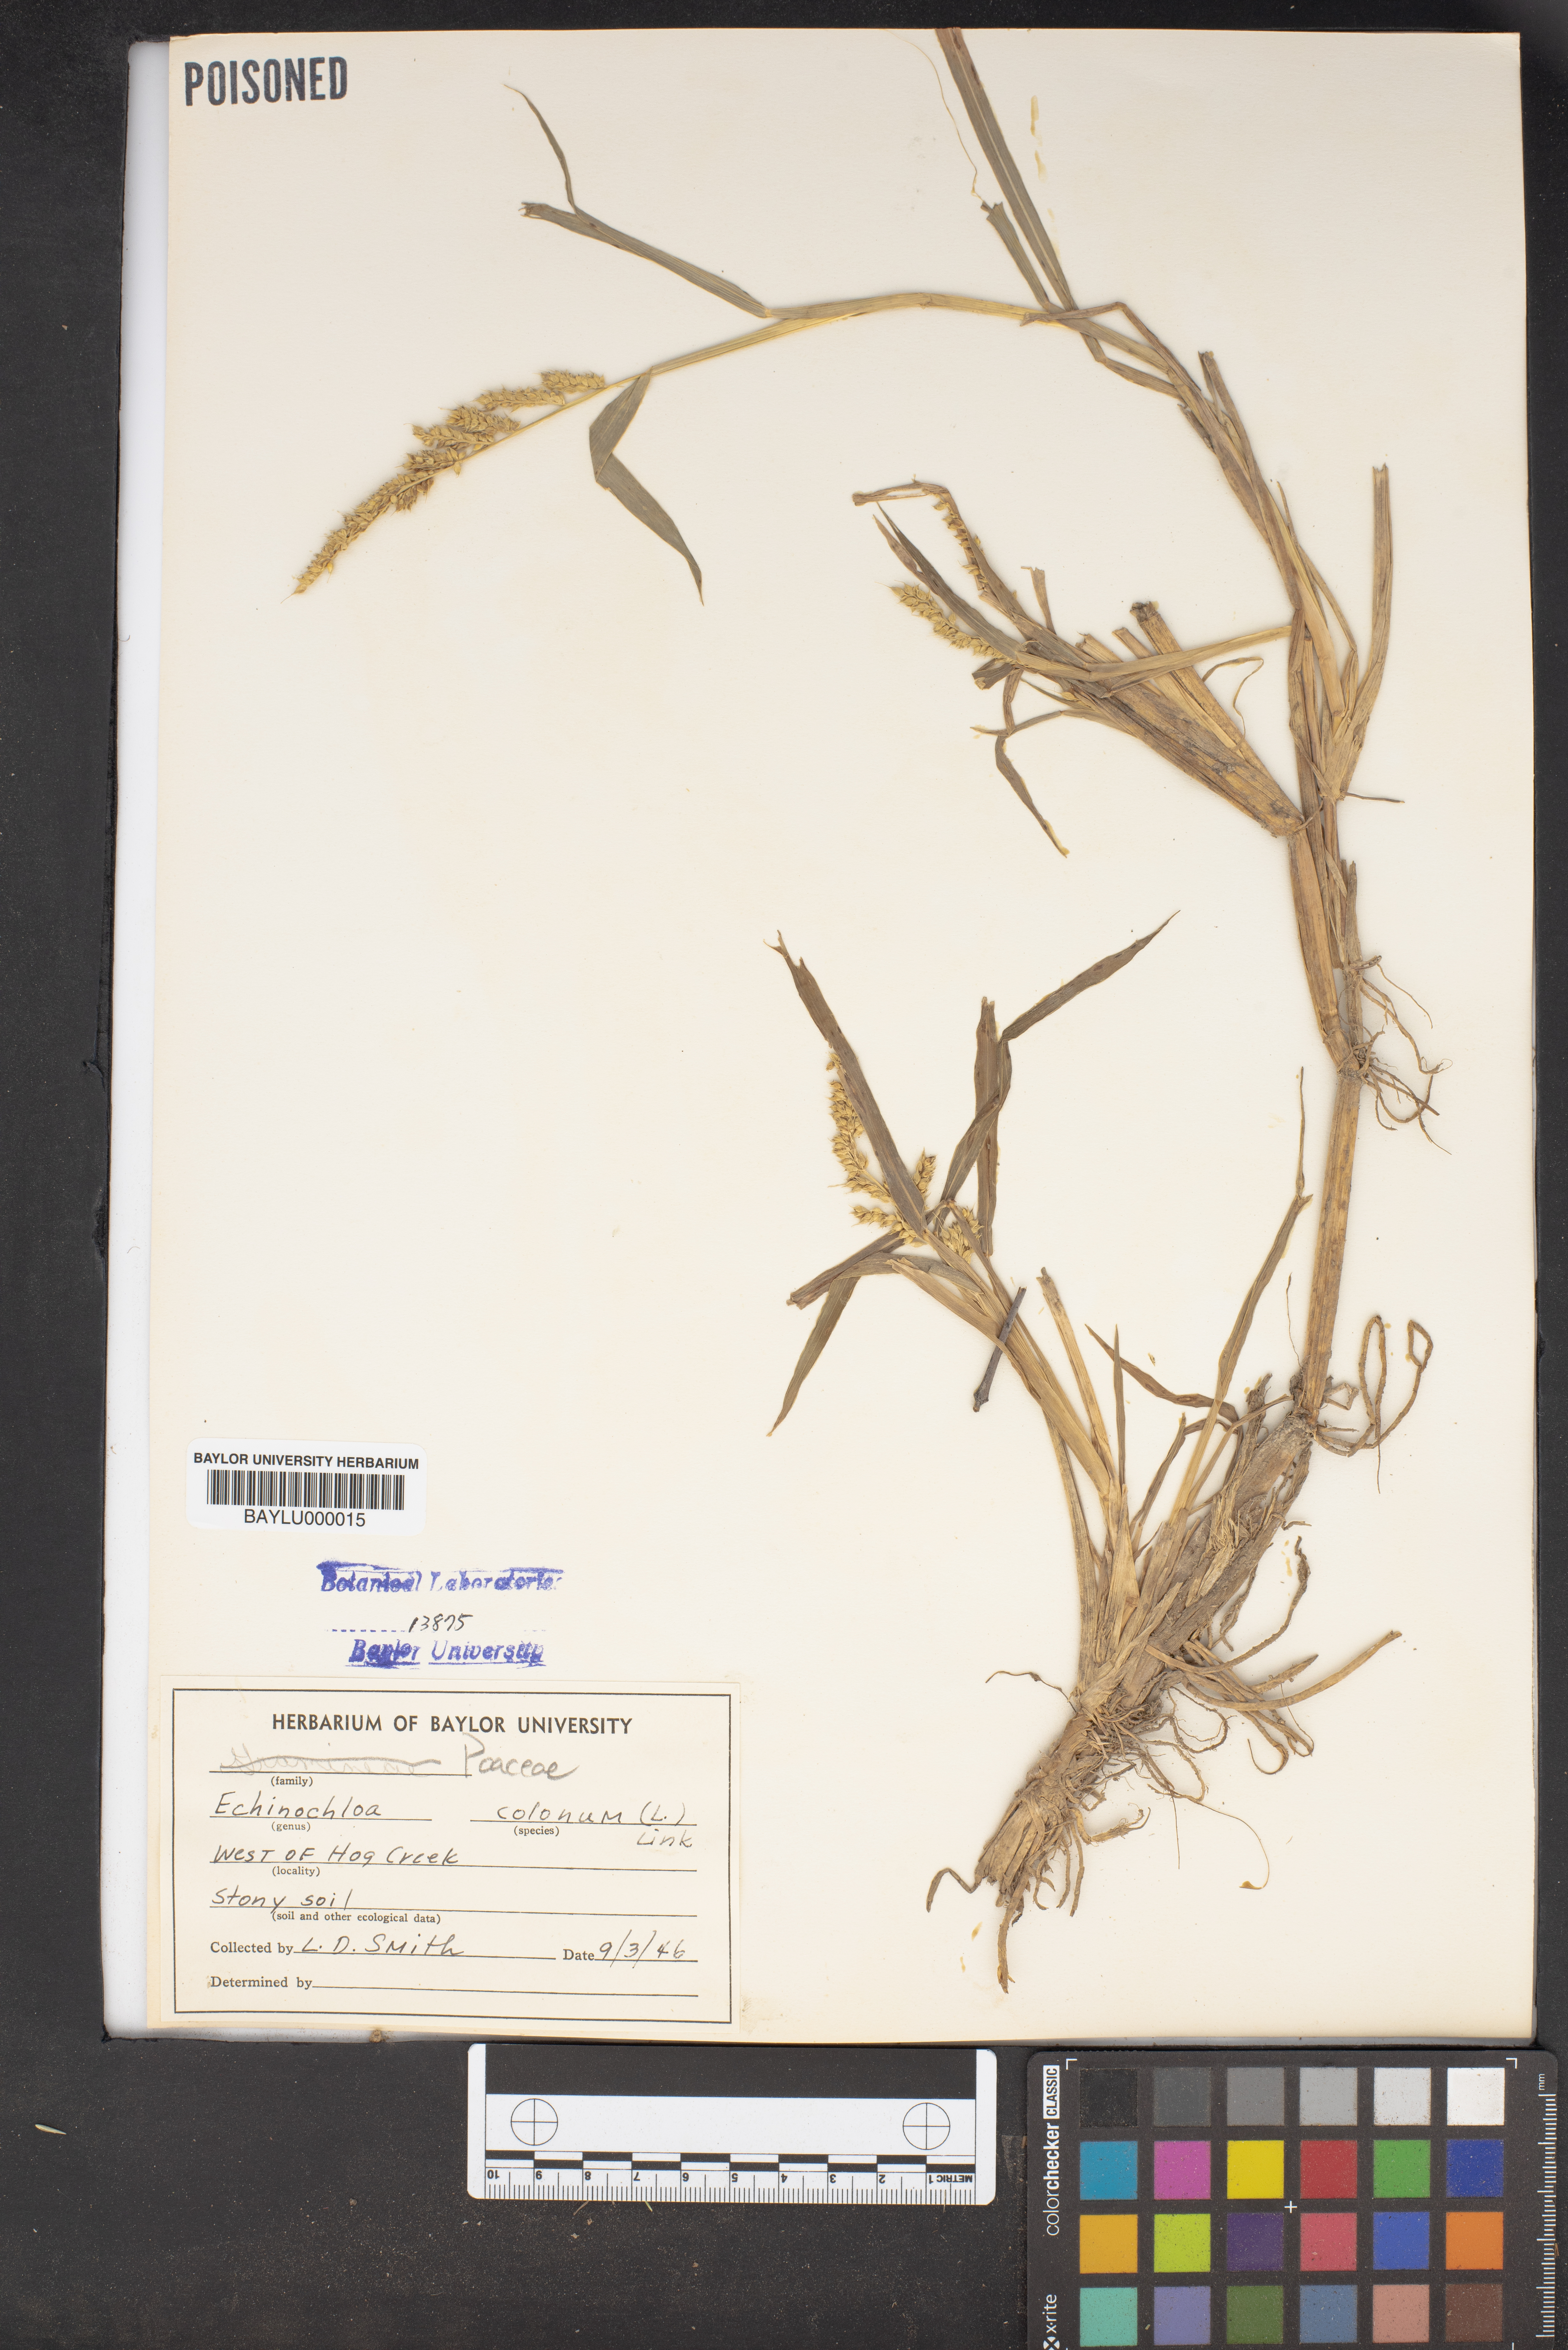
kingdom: Plantae
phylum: Tracheophyta
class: Liliopsida
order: Poales
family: Poaceae
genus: Echinochloa
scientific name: Echinochloa colonum
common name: Jungle rice
